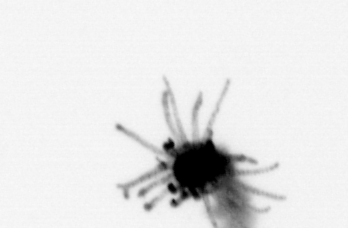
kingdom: Animalia
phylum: Cnidaria
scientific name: Cnidaria
